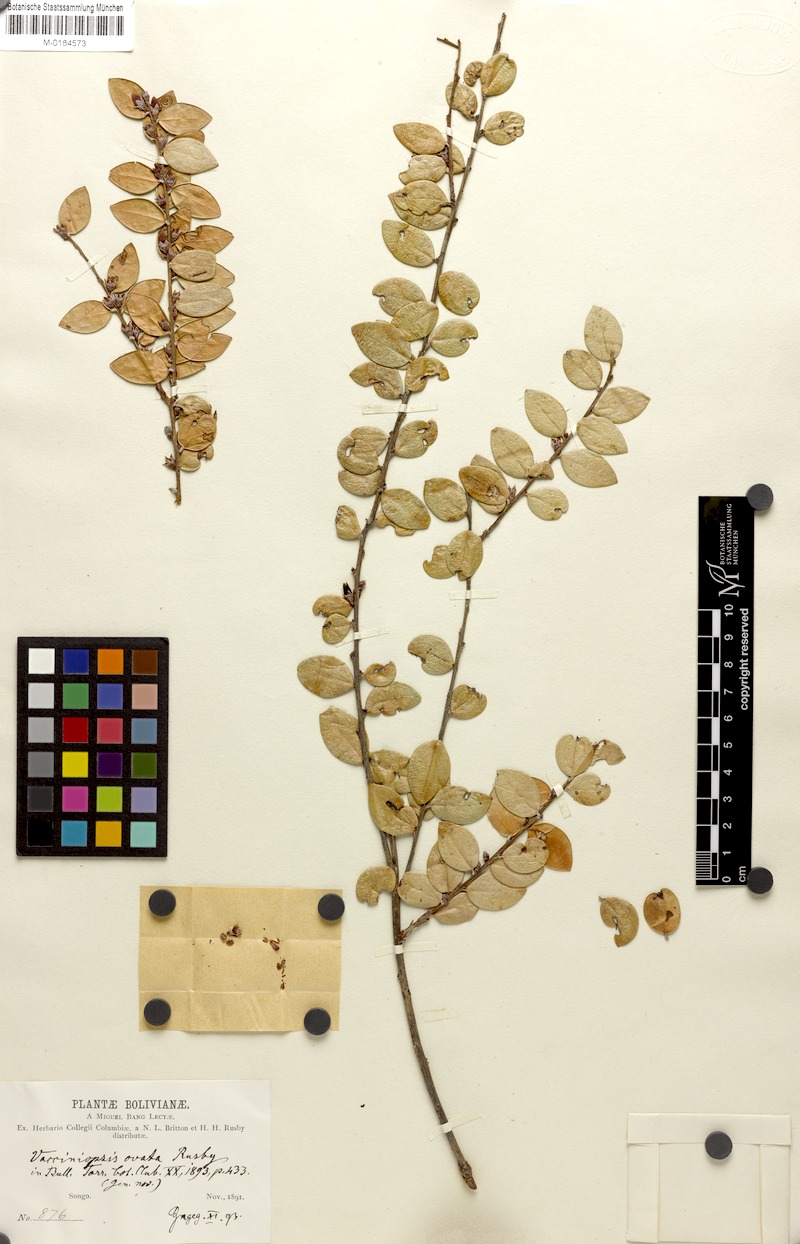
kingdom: Plantae
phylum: Tracheophyta
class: Magnoliopsida
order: Ericales
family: Ericaceae
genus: Disterigma
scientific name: Disterigma ovatum
